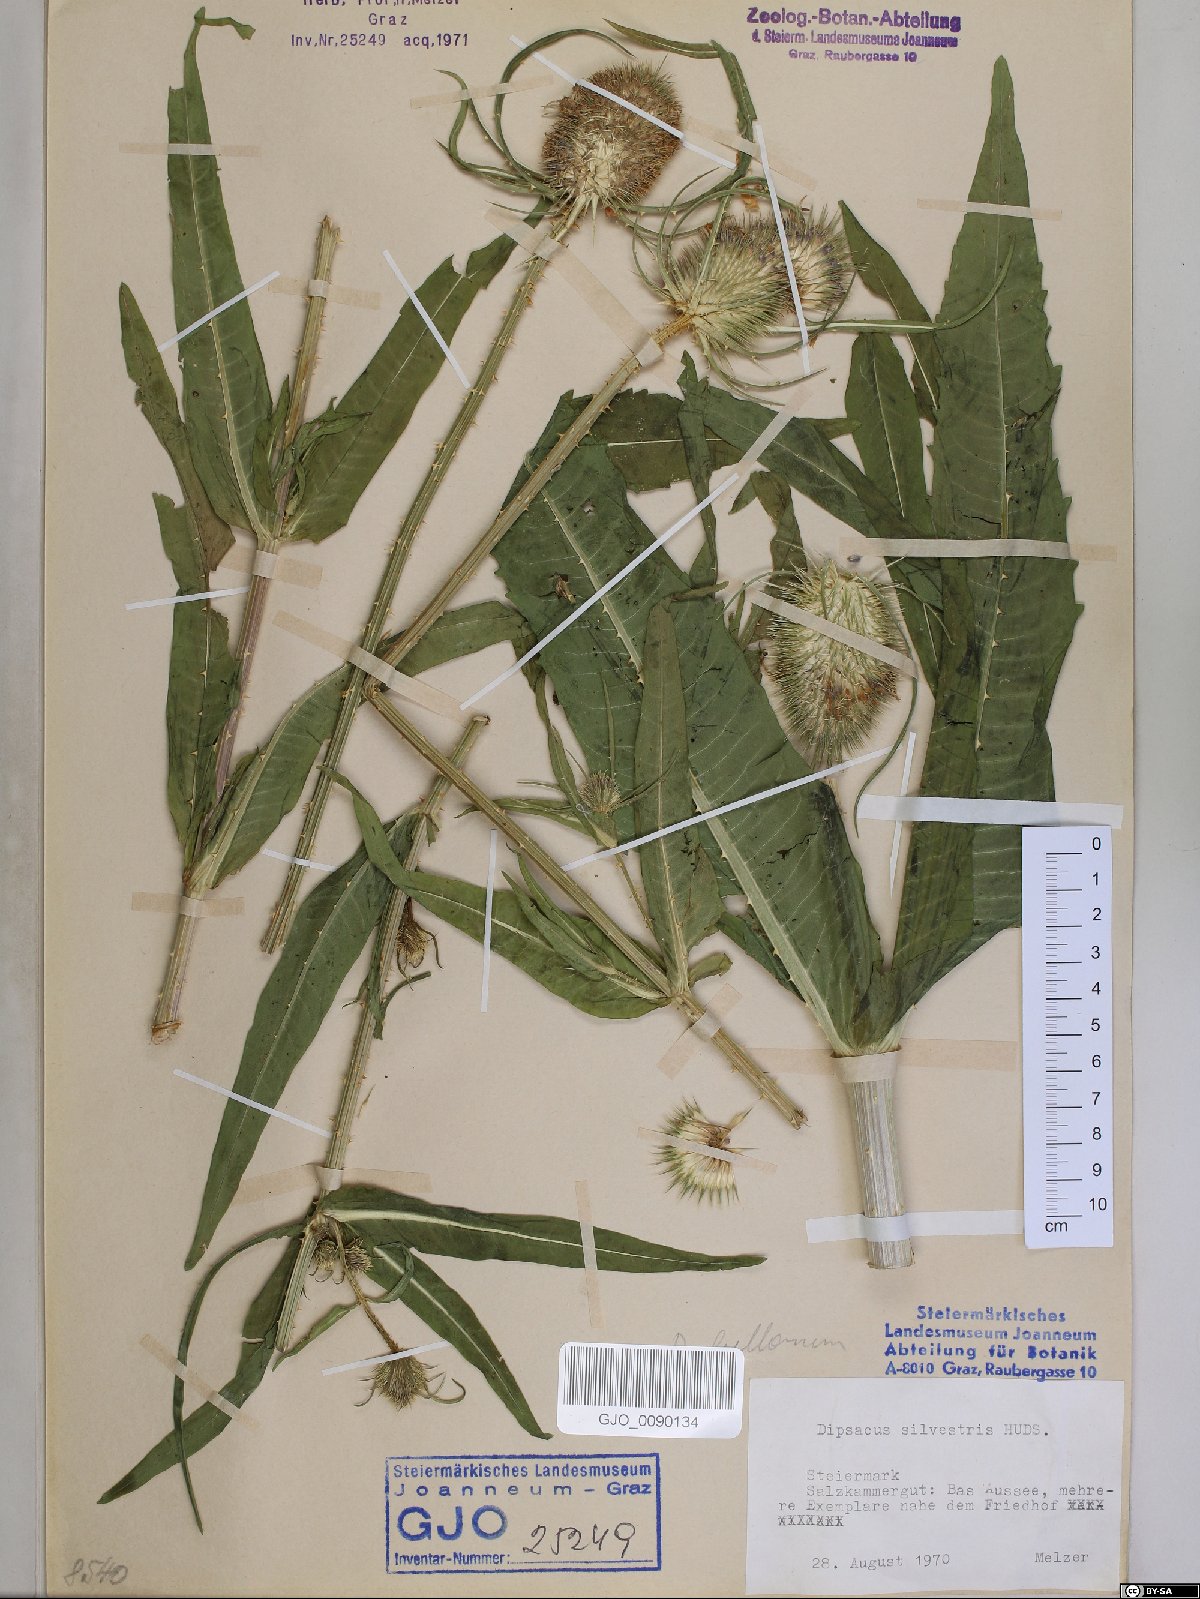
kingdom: Plantae
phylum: Tracheophyta
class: Magnoliopsida
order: Dipsacales
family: Caprifoliaceae
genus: Dipsacus
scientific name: Dipsacus fullonum
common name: Teasel
